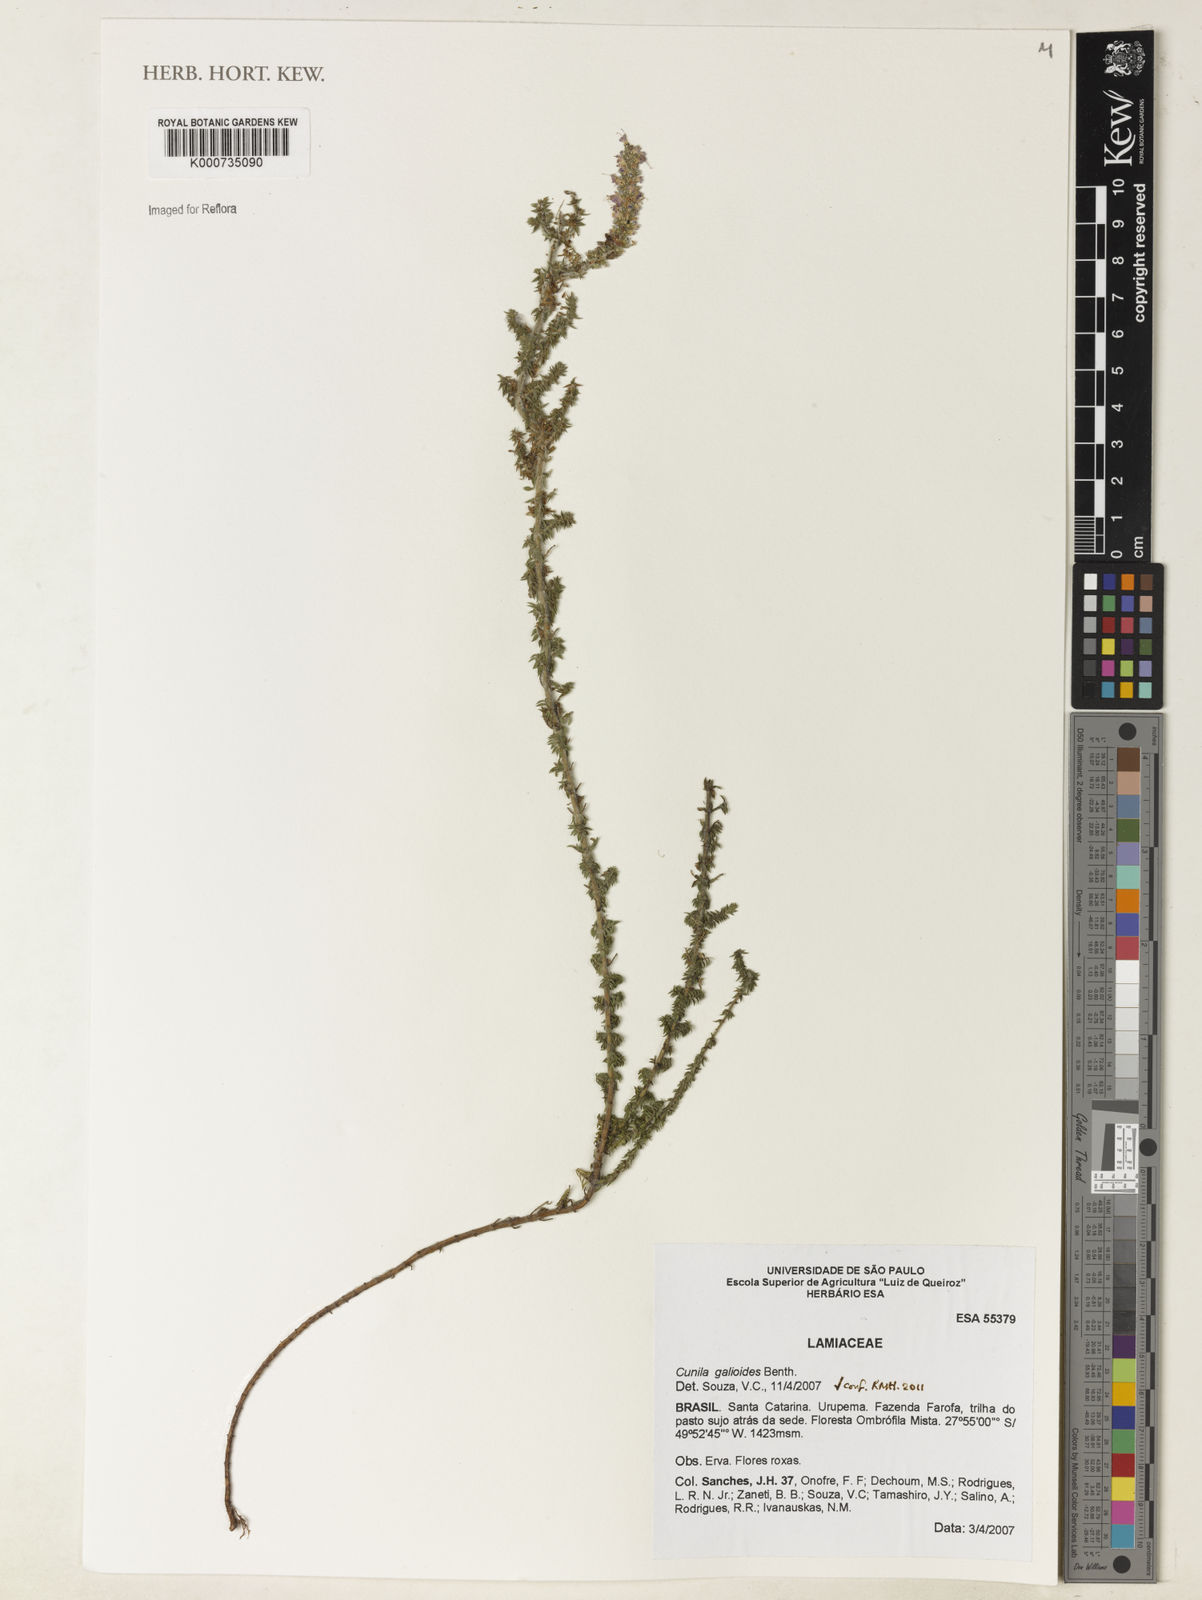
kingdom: Plantae
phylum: Tracheophyta
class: Magnoliopsida
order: Lamiales
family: Lamiaceae
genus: Cunila
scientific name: Cunila galioides
